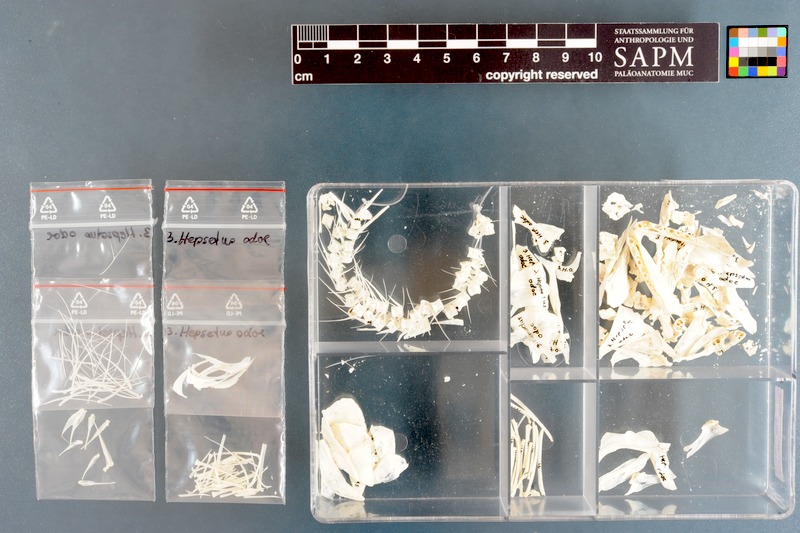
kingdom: Animalia
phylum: Chordata
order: Characiformes
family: Hepsetidae
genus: Hepsetus
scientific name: Hepsetus odoe
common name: African pike
